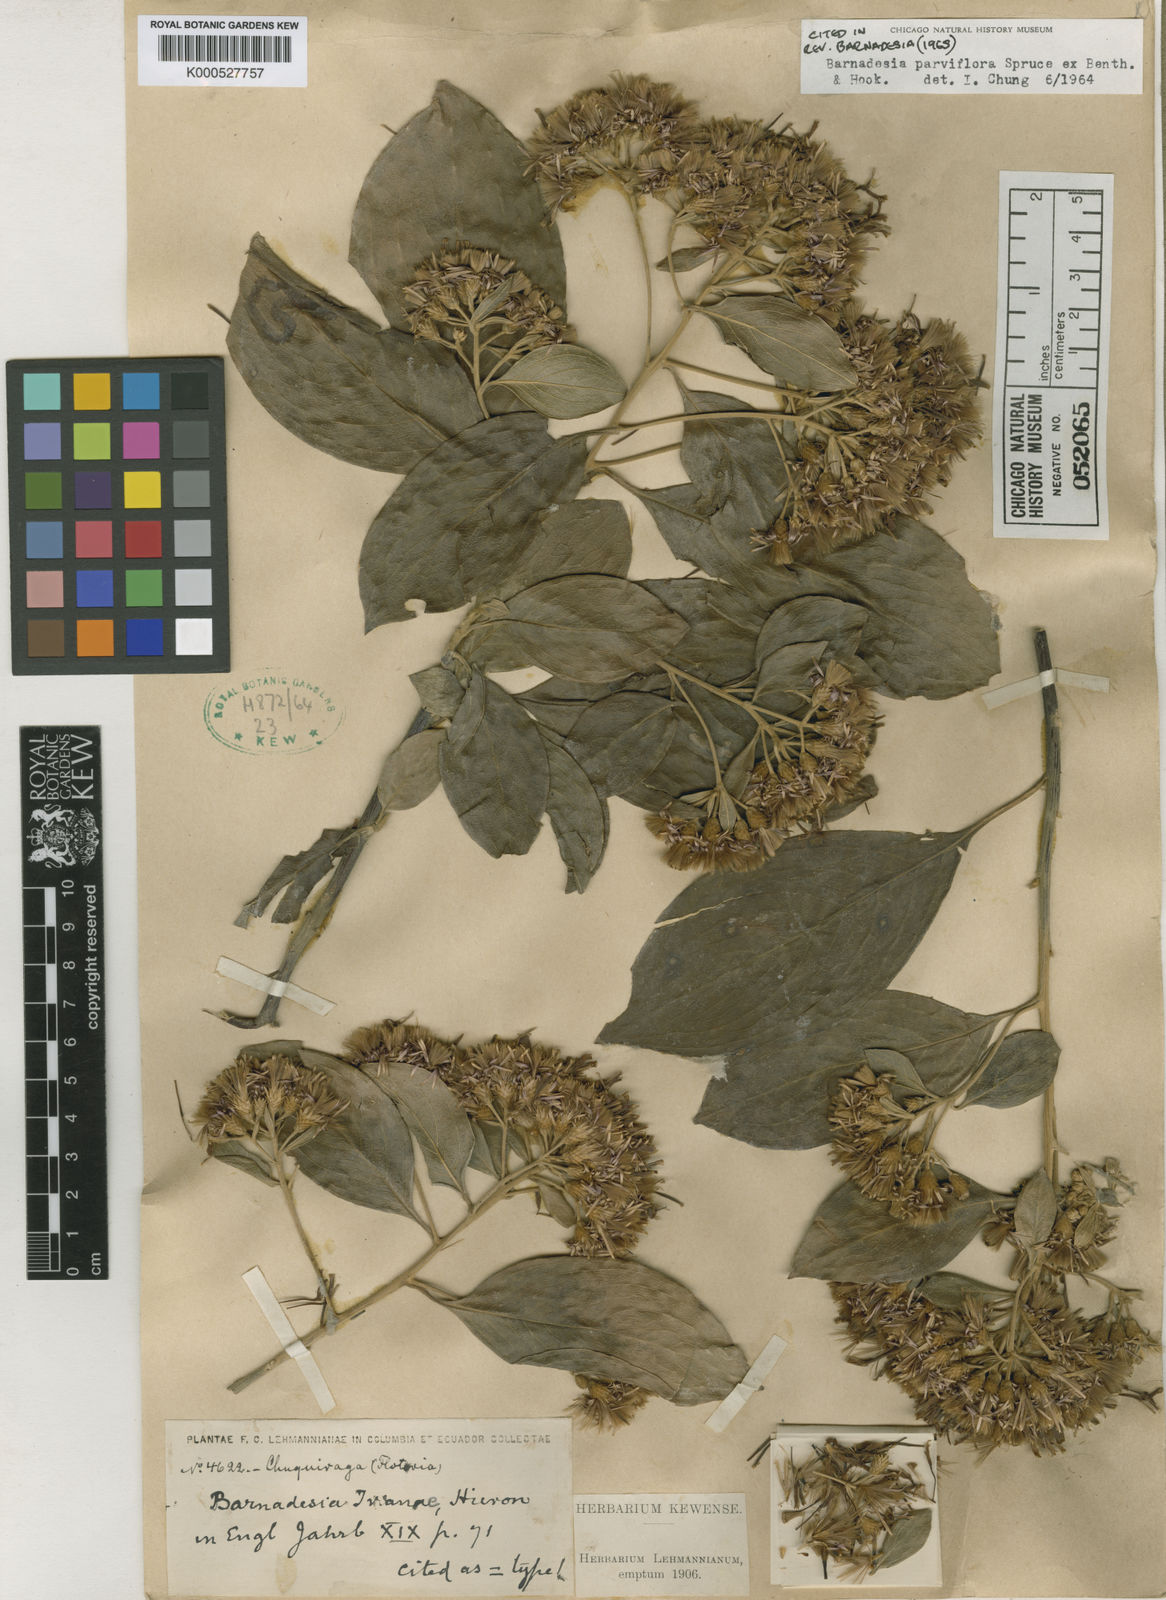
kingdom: Plantae
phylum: Tracheophyta
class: Magnoliopsida
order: Asterales
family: Asteraceae
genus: Barnadesia
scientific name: Barnadesia parviflora
